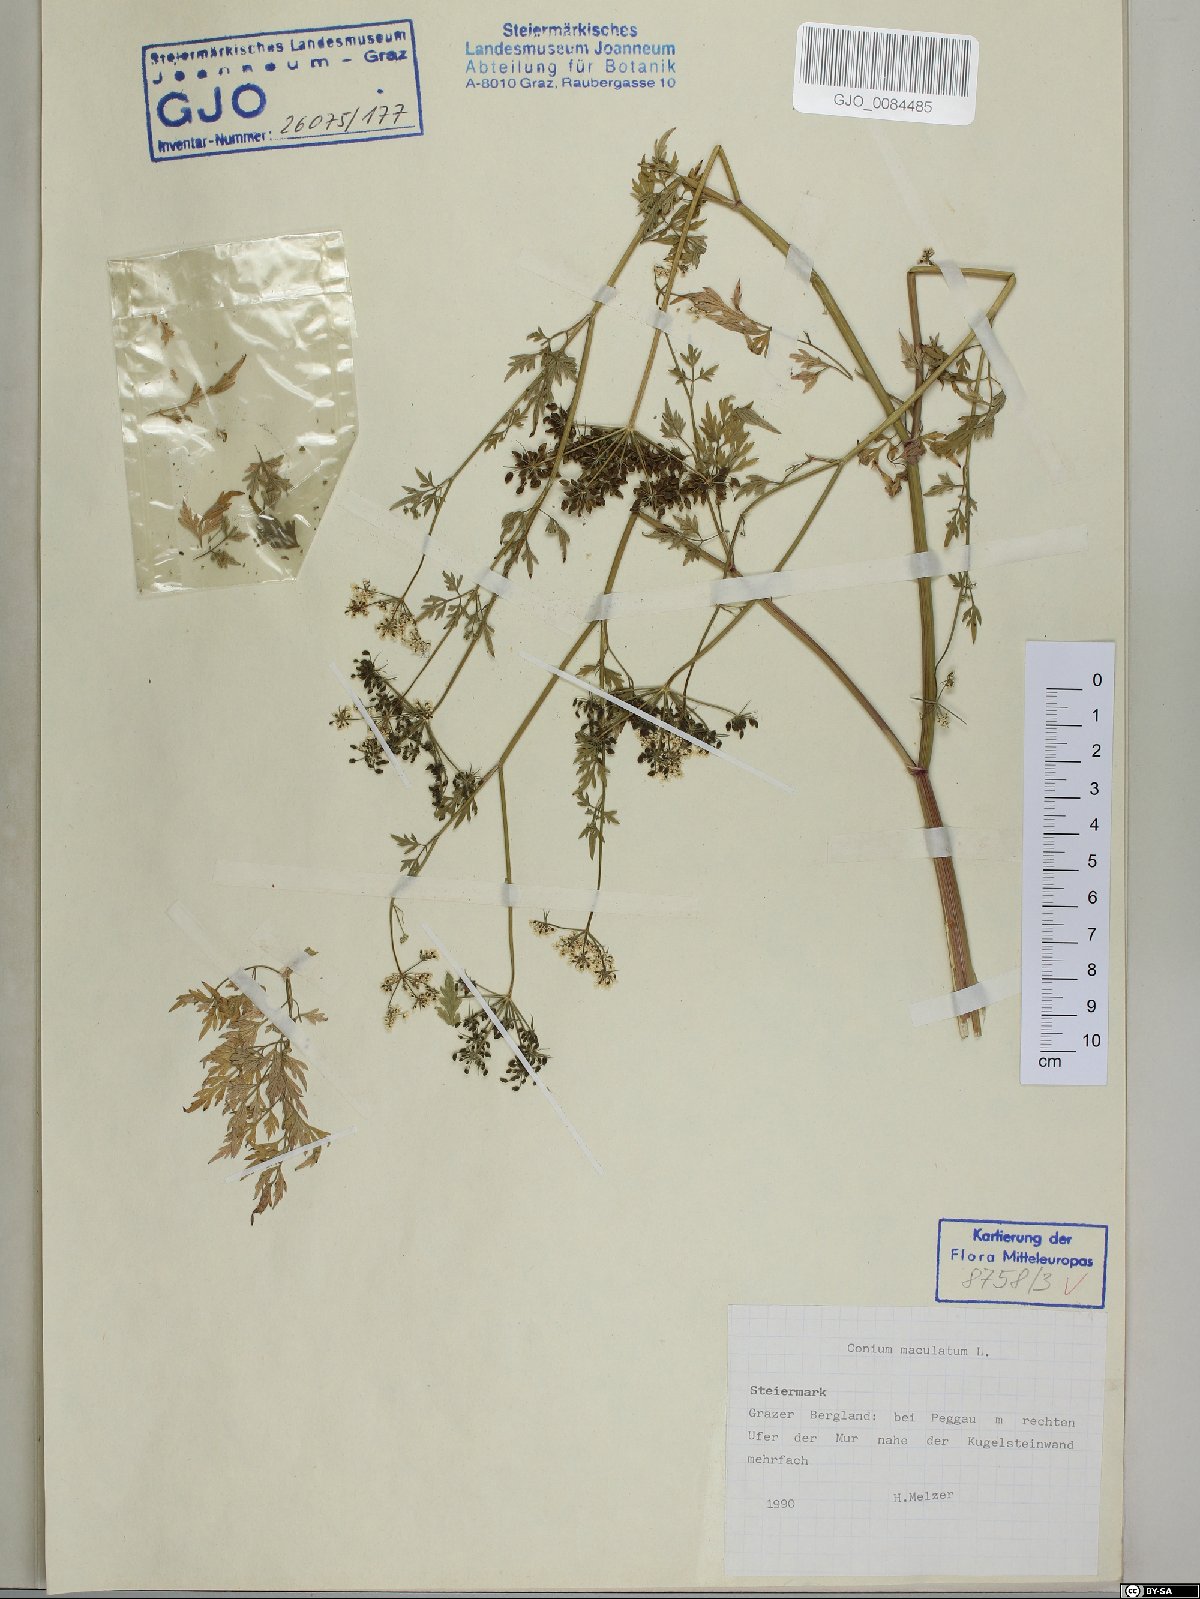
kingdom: Plantae
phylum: Tracheophyta
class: Magnoliopsida
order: Apiales
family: Apiaceae
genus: Conium
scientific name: Conium maculatum
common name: Hemlock
